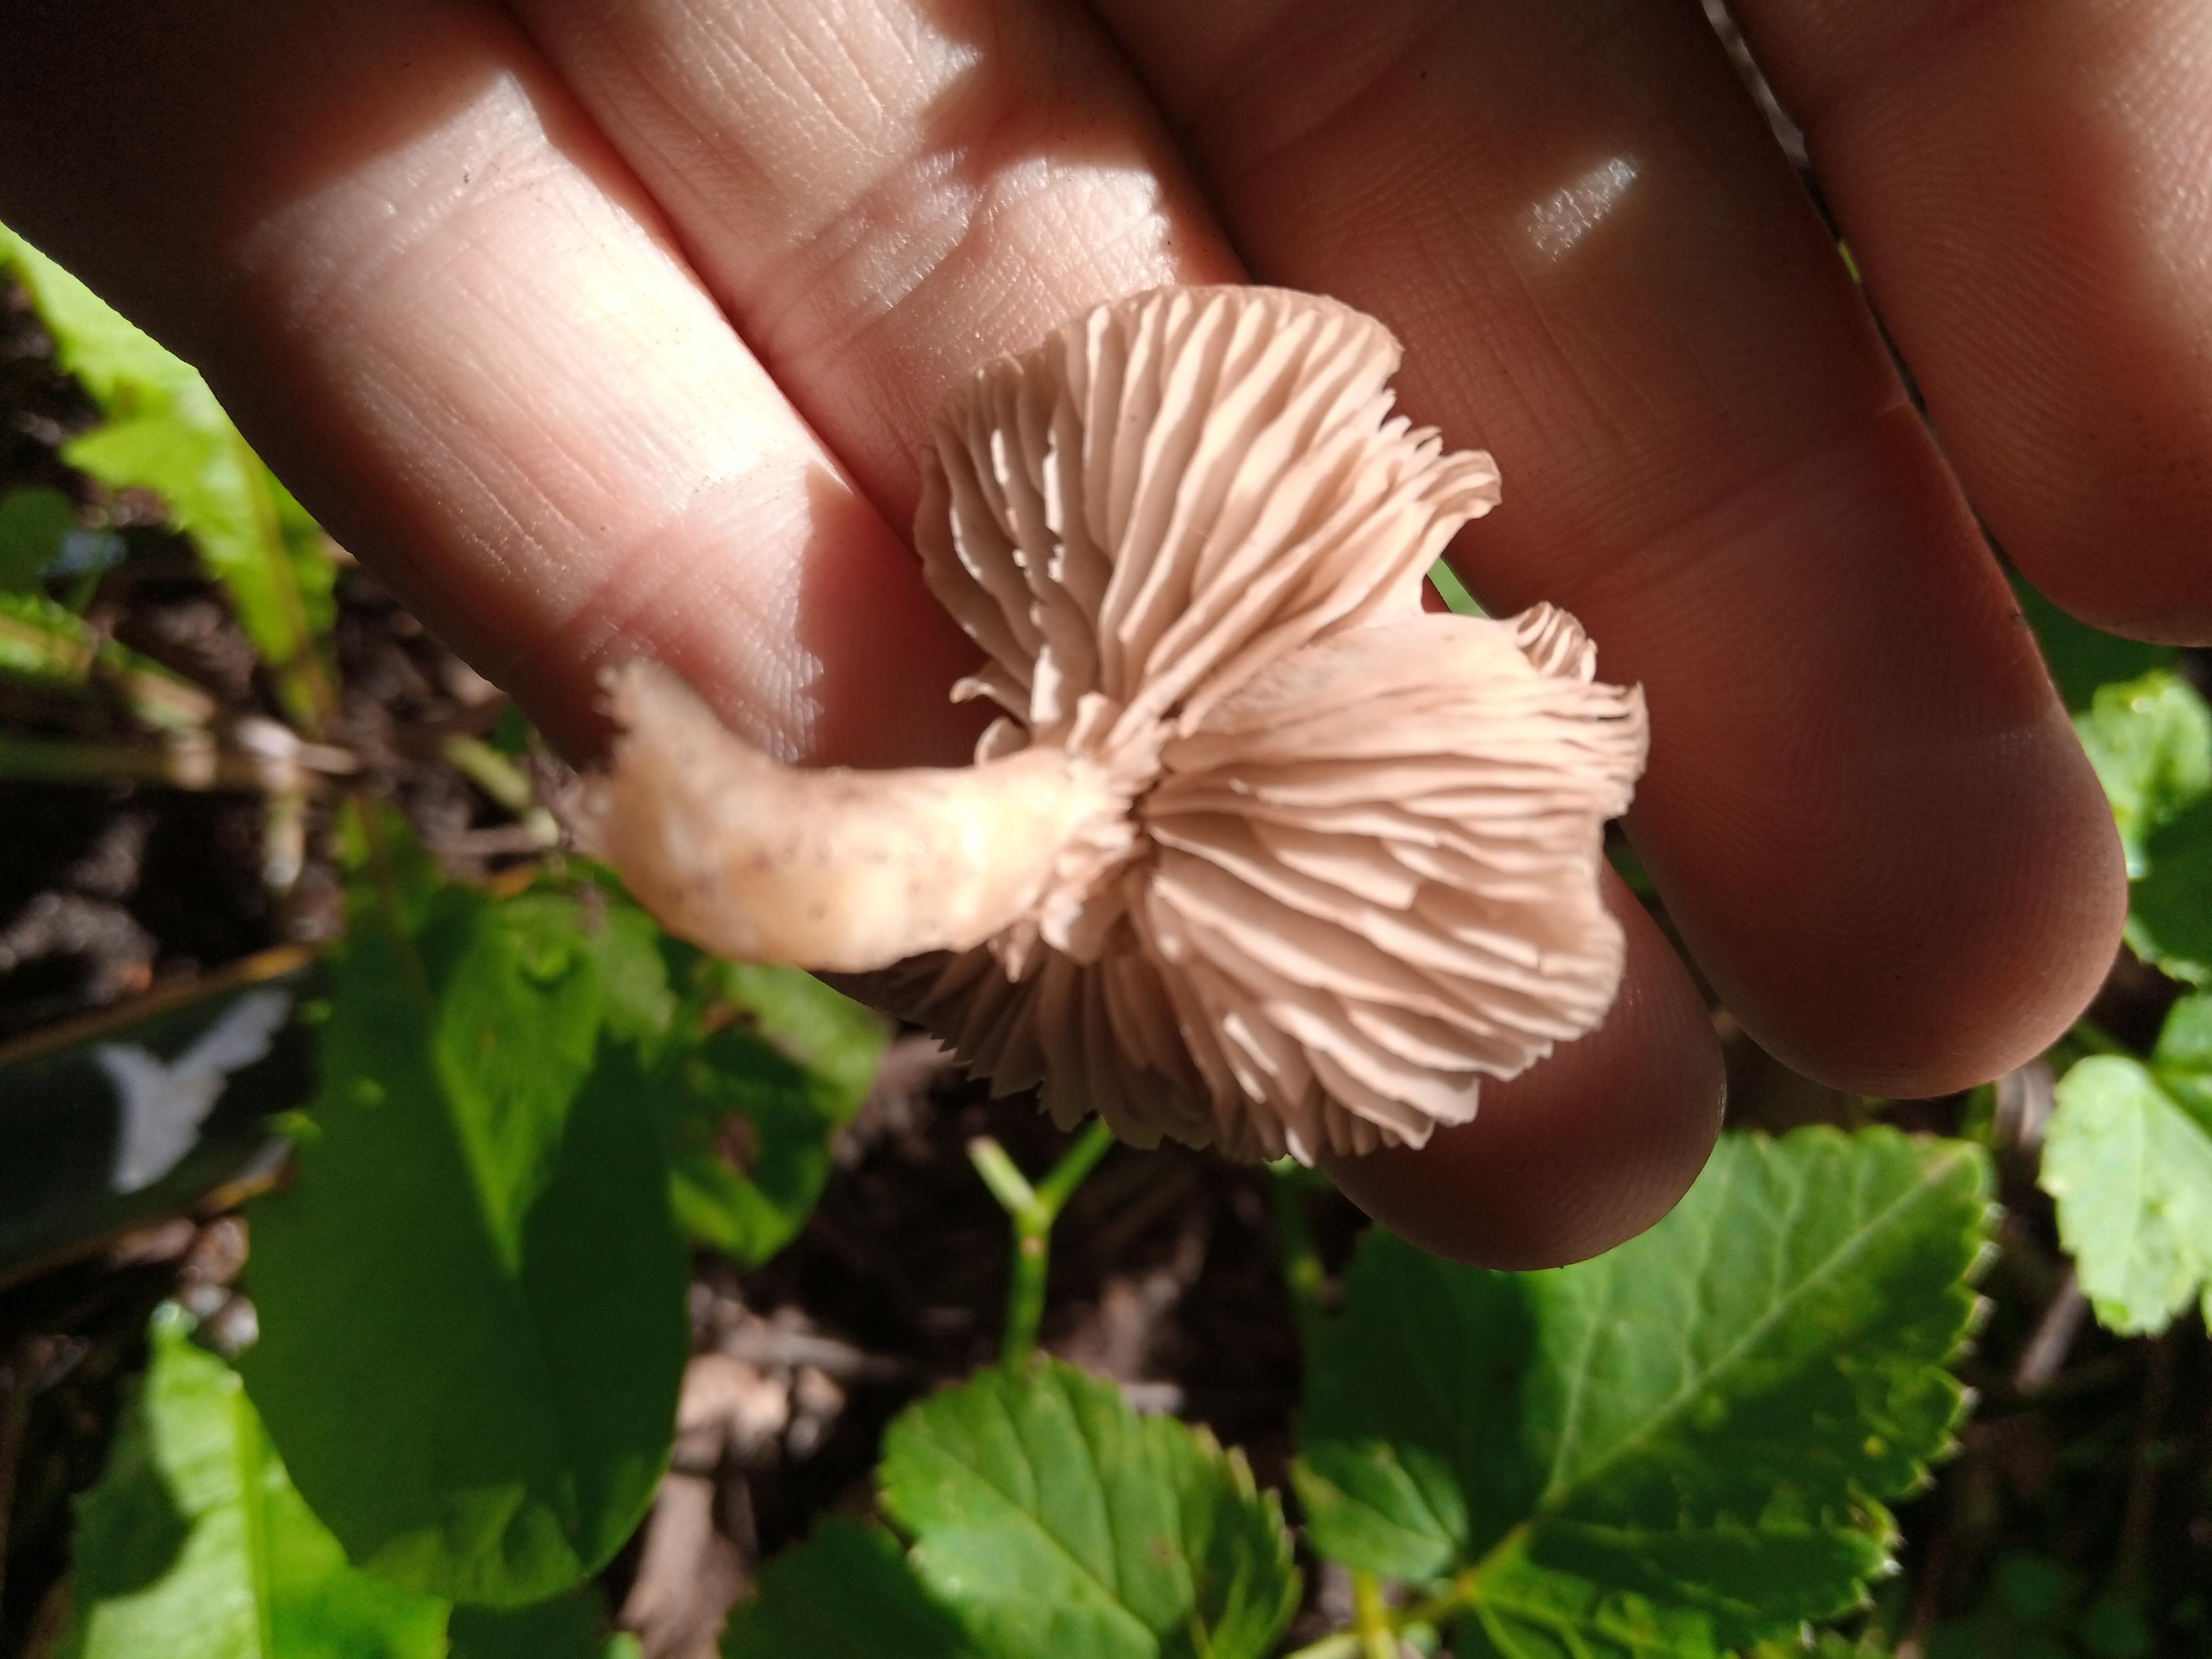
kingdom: Fungi
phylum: Basidiomycota
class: Agaricomycetes
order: Agaricales
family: Entolomataceae
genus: Entoloma
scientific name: Entoloma
